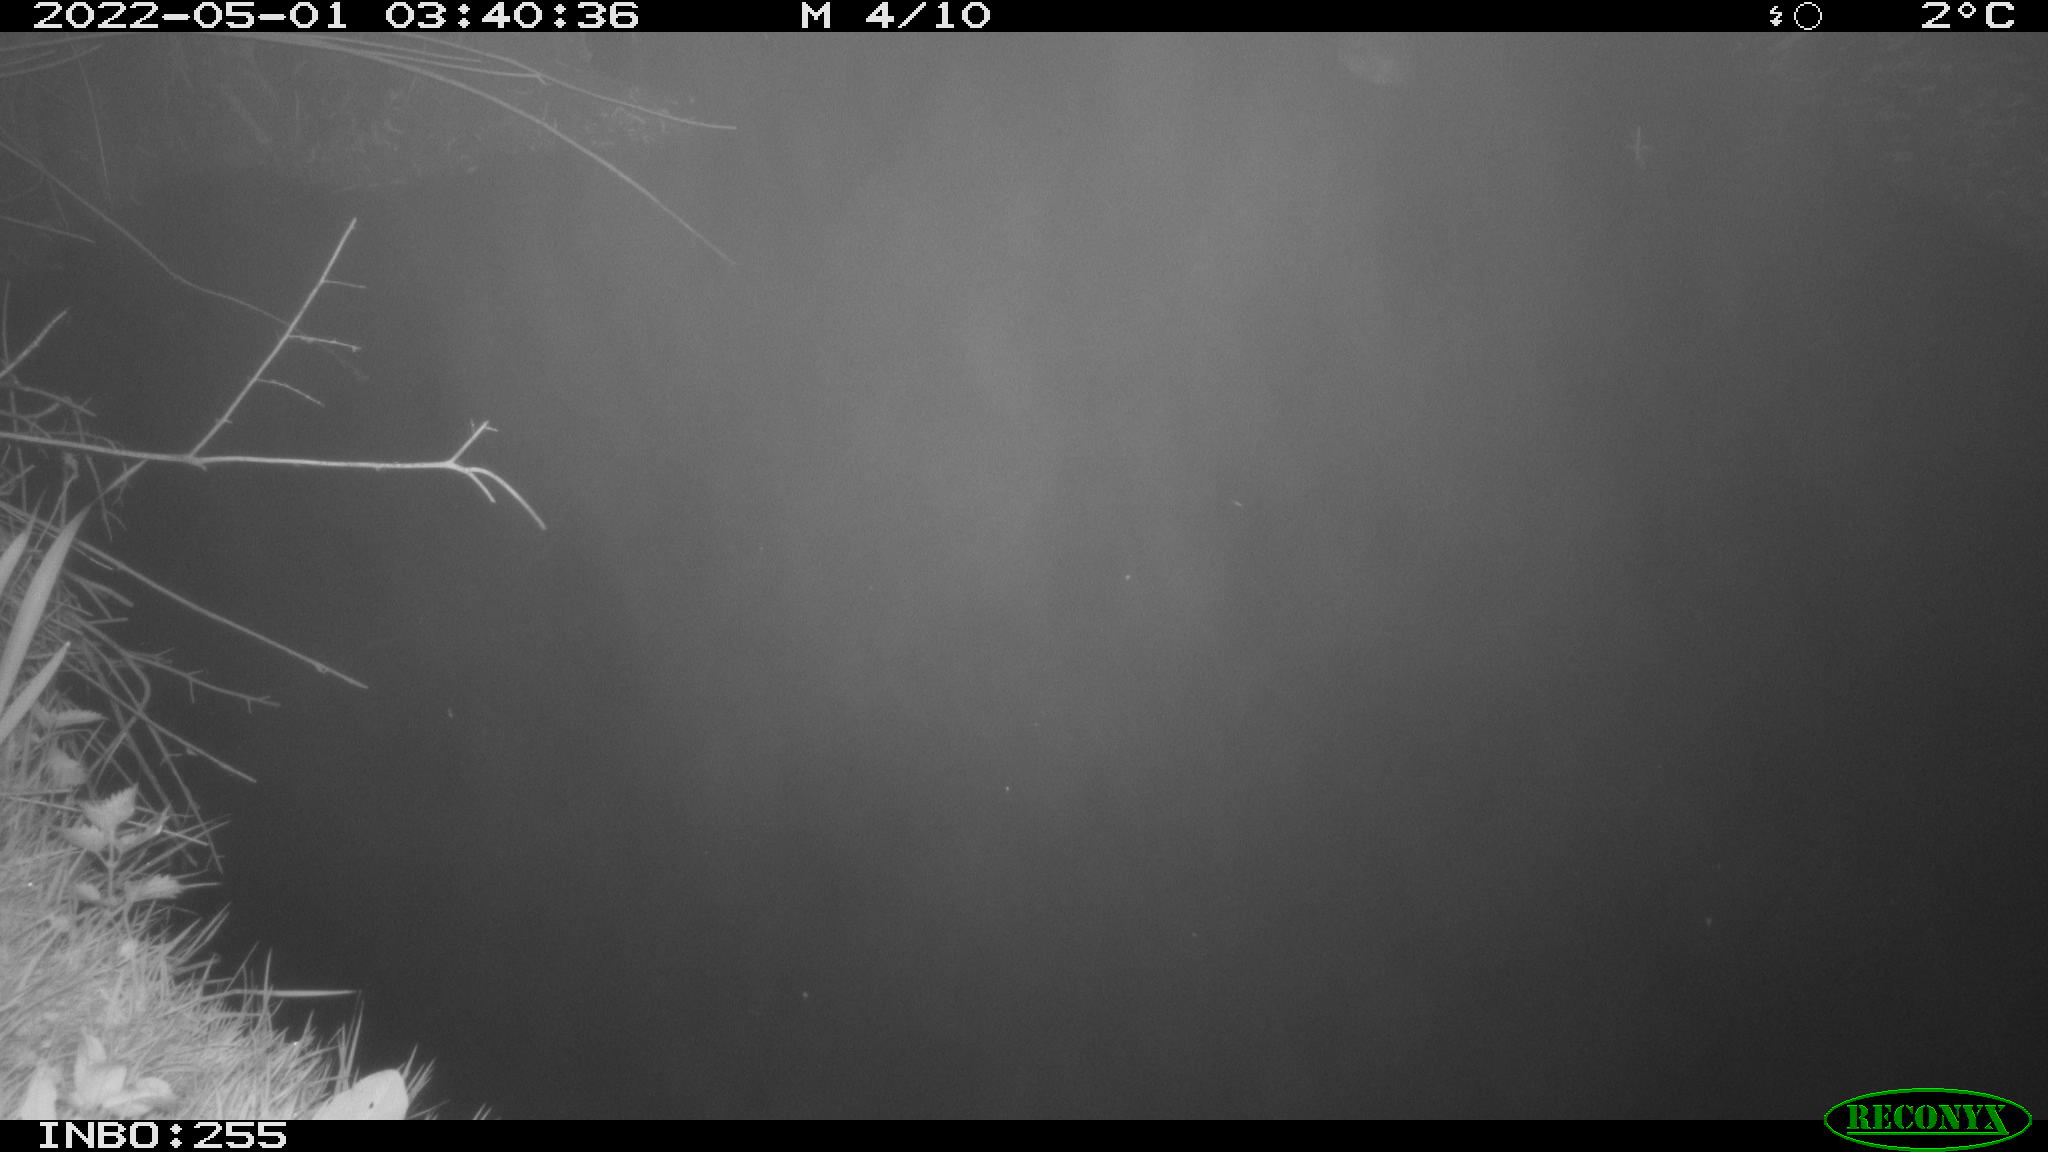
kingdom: Animalia
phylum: Chordata
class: Aves
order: Anseriformes
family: Anatidae
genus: Anas
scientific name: Anas platyrhynchos
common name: Mallard
